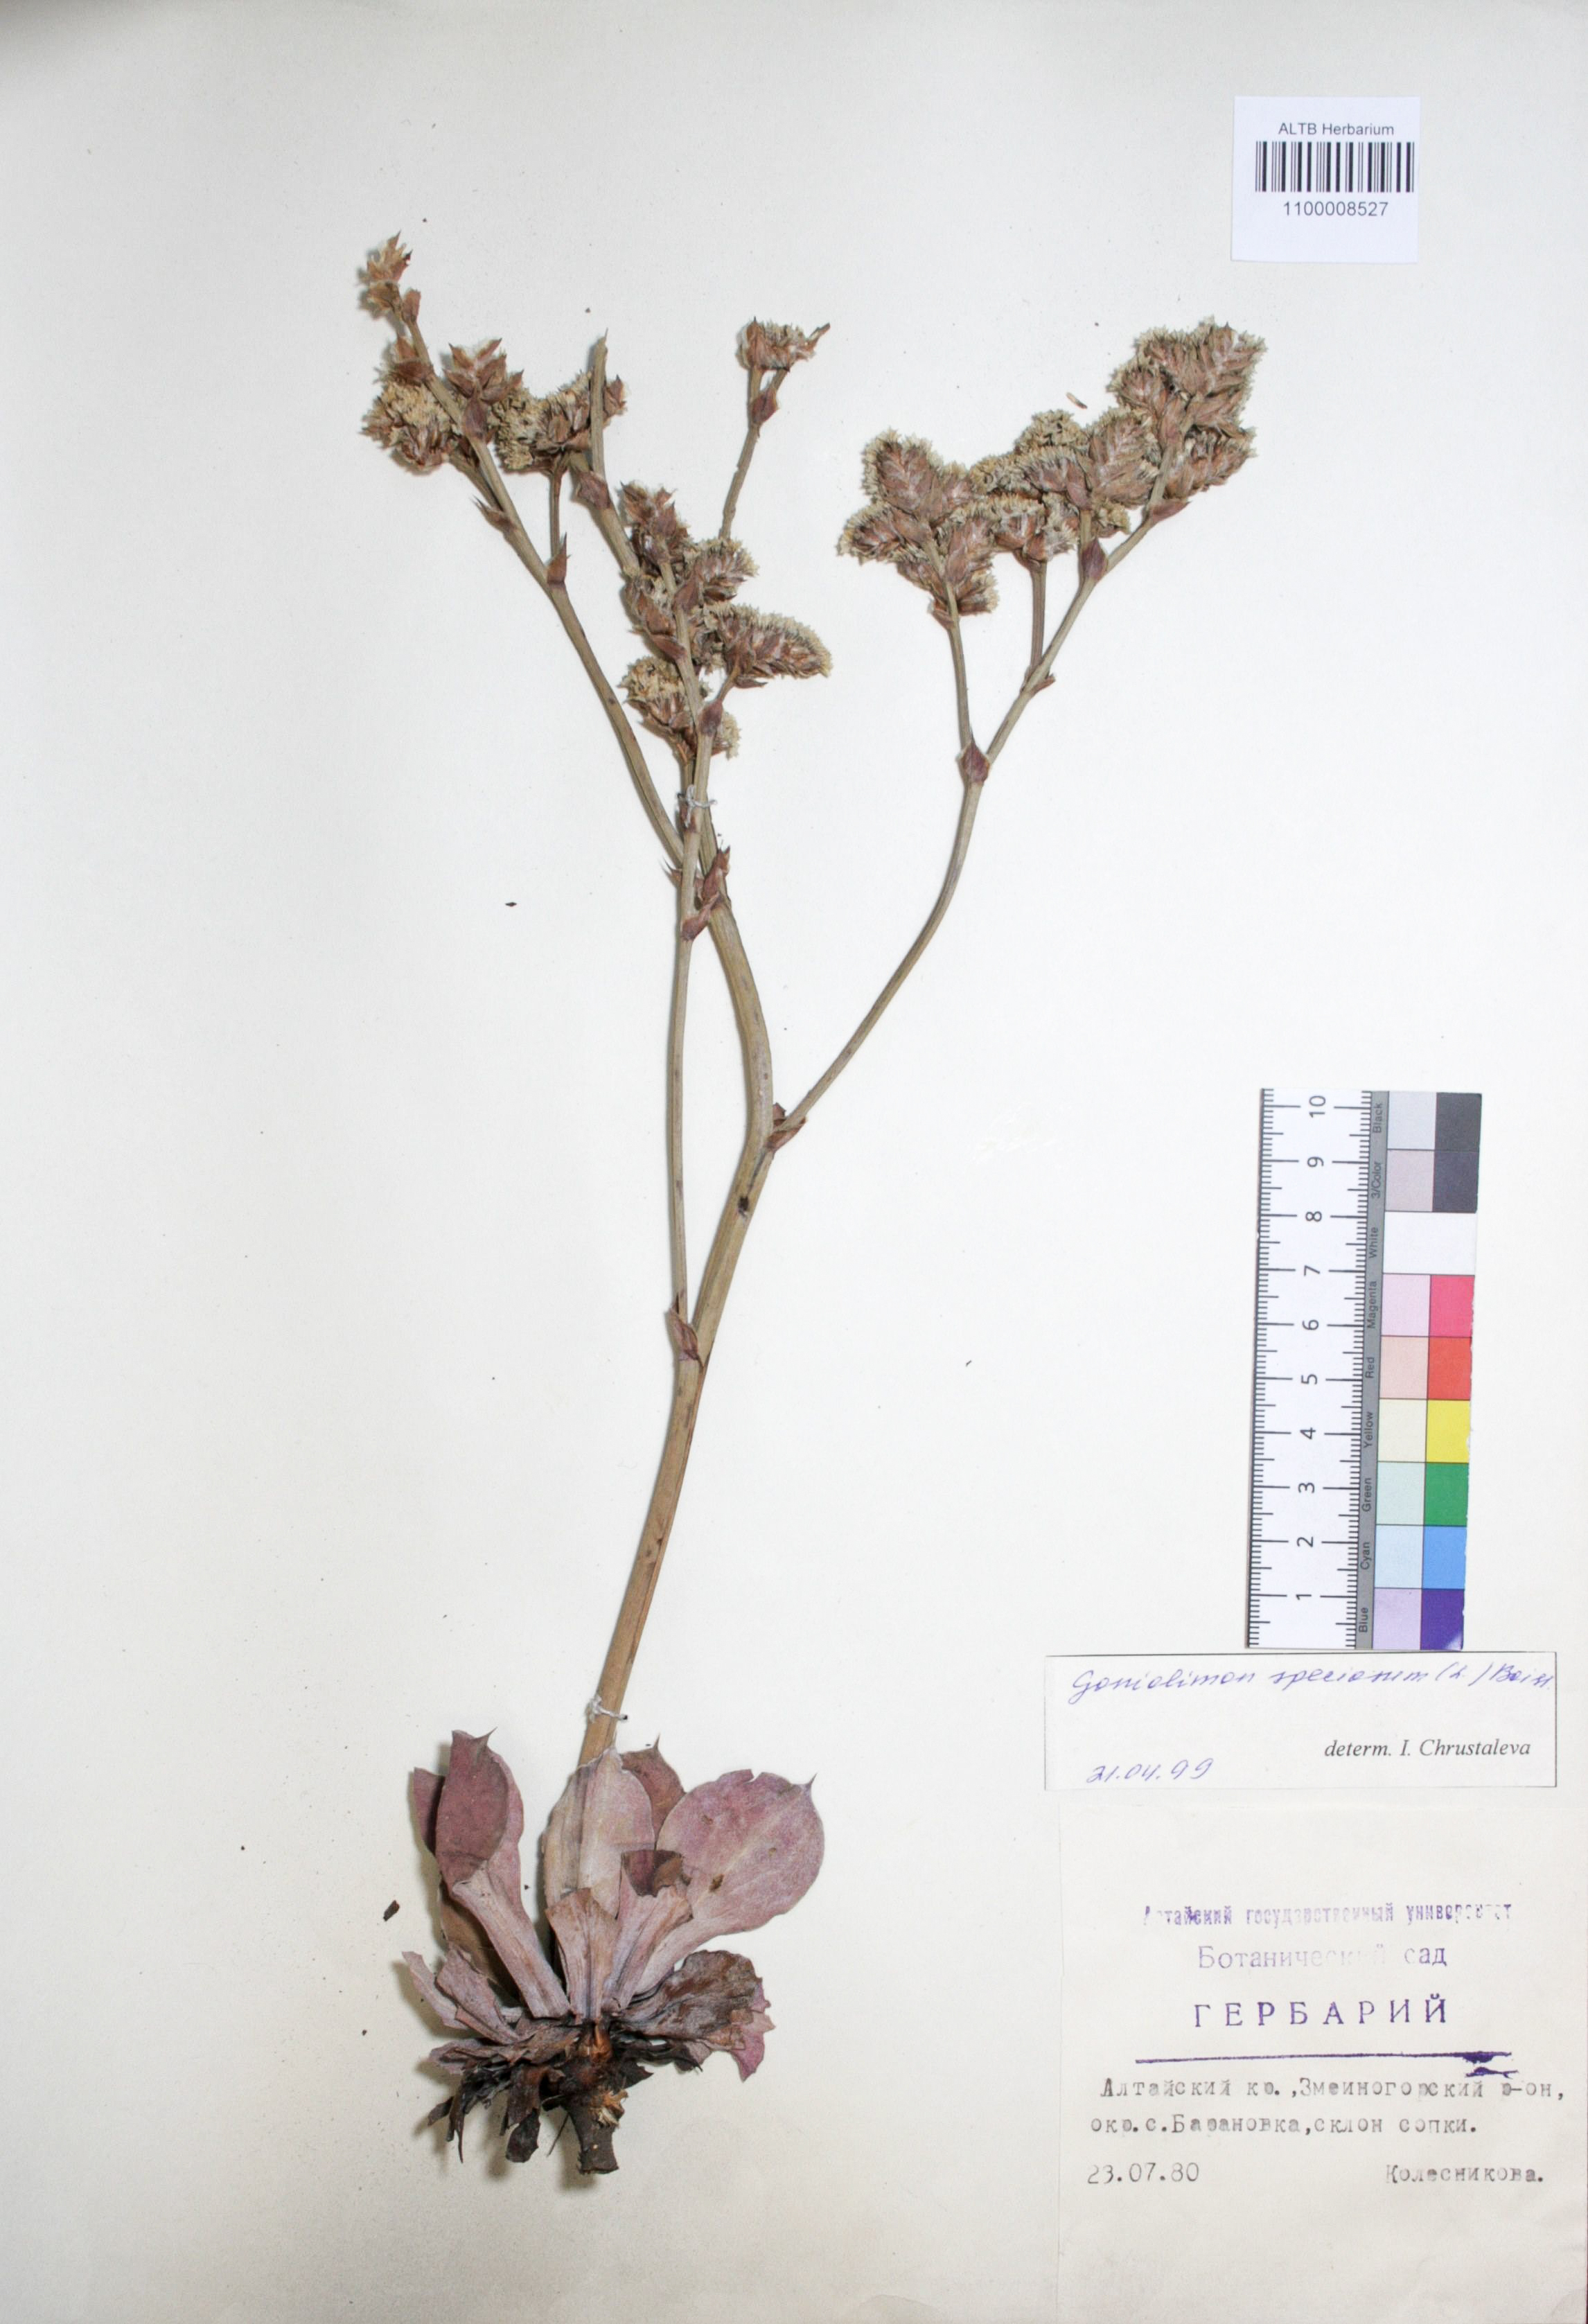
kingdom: Plantae
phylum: Tracheophyta
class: Magnoliopsida
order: Caryophyllales
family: Plumbaginaceae
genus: Goniolimon
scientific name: Goniolimon speciosum
